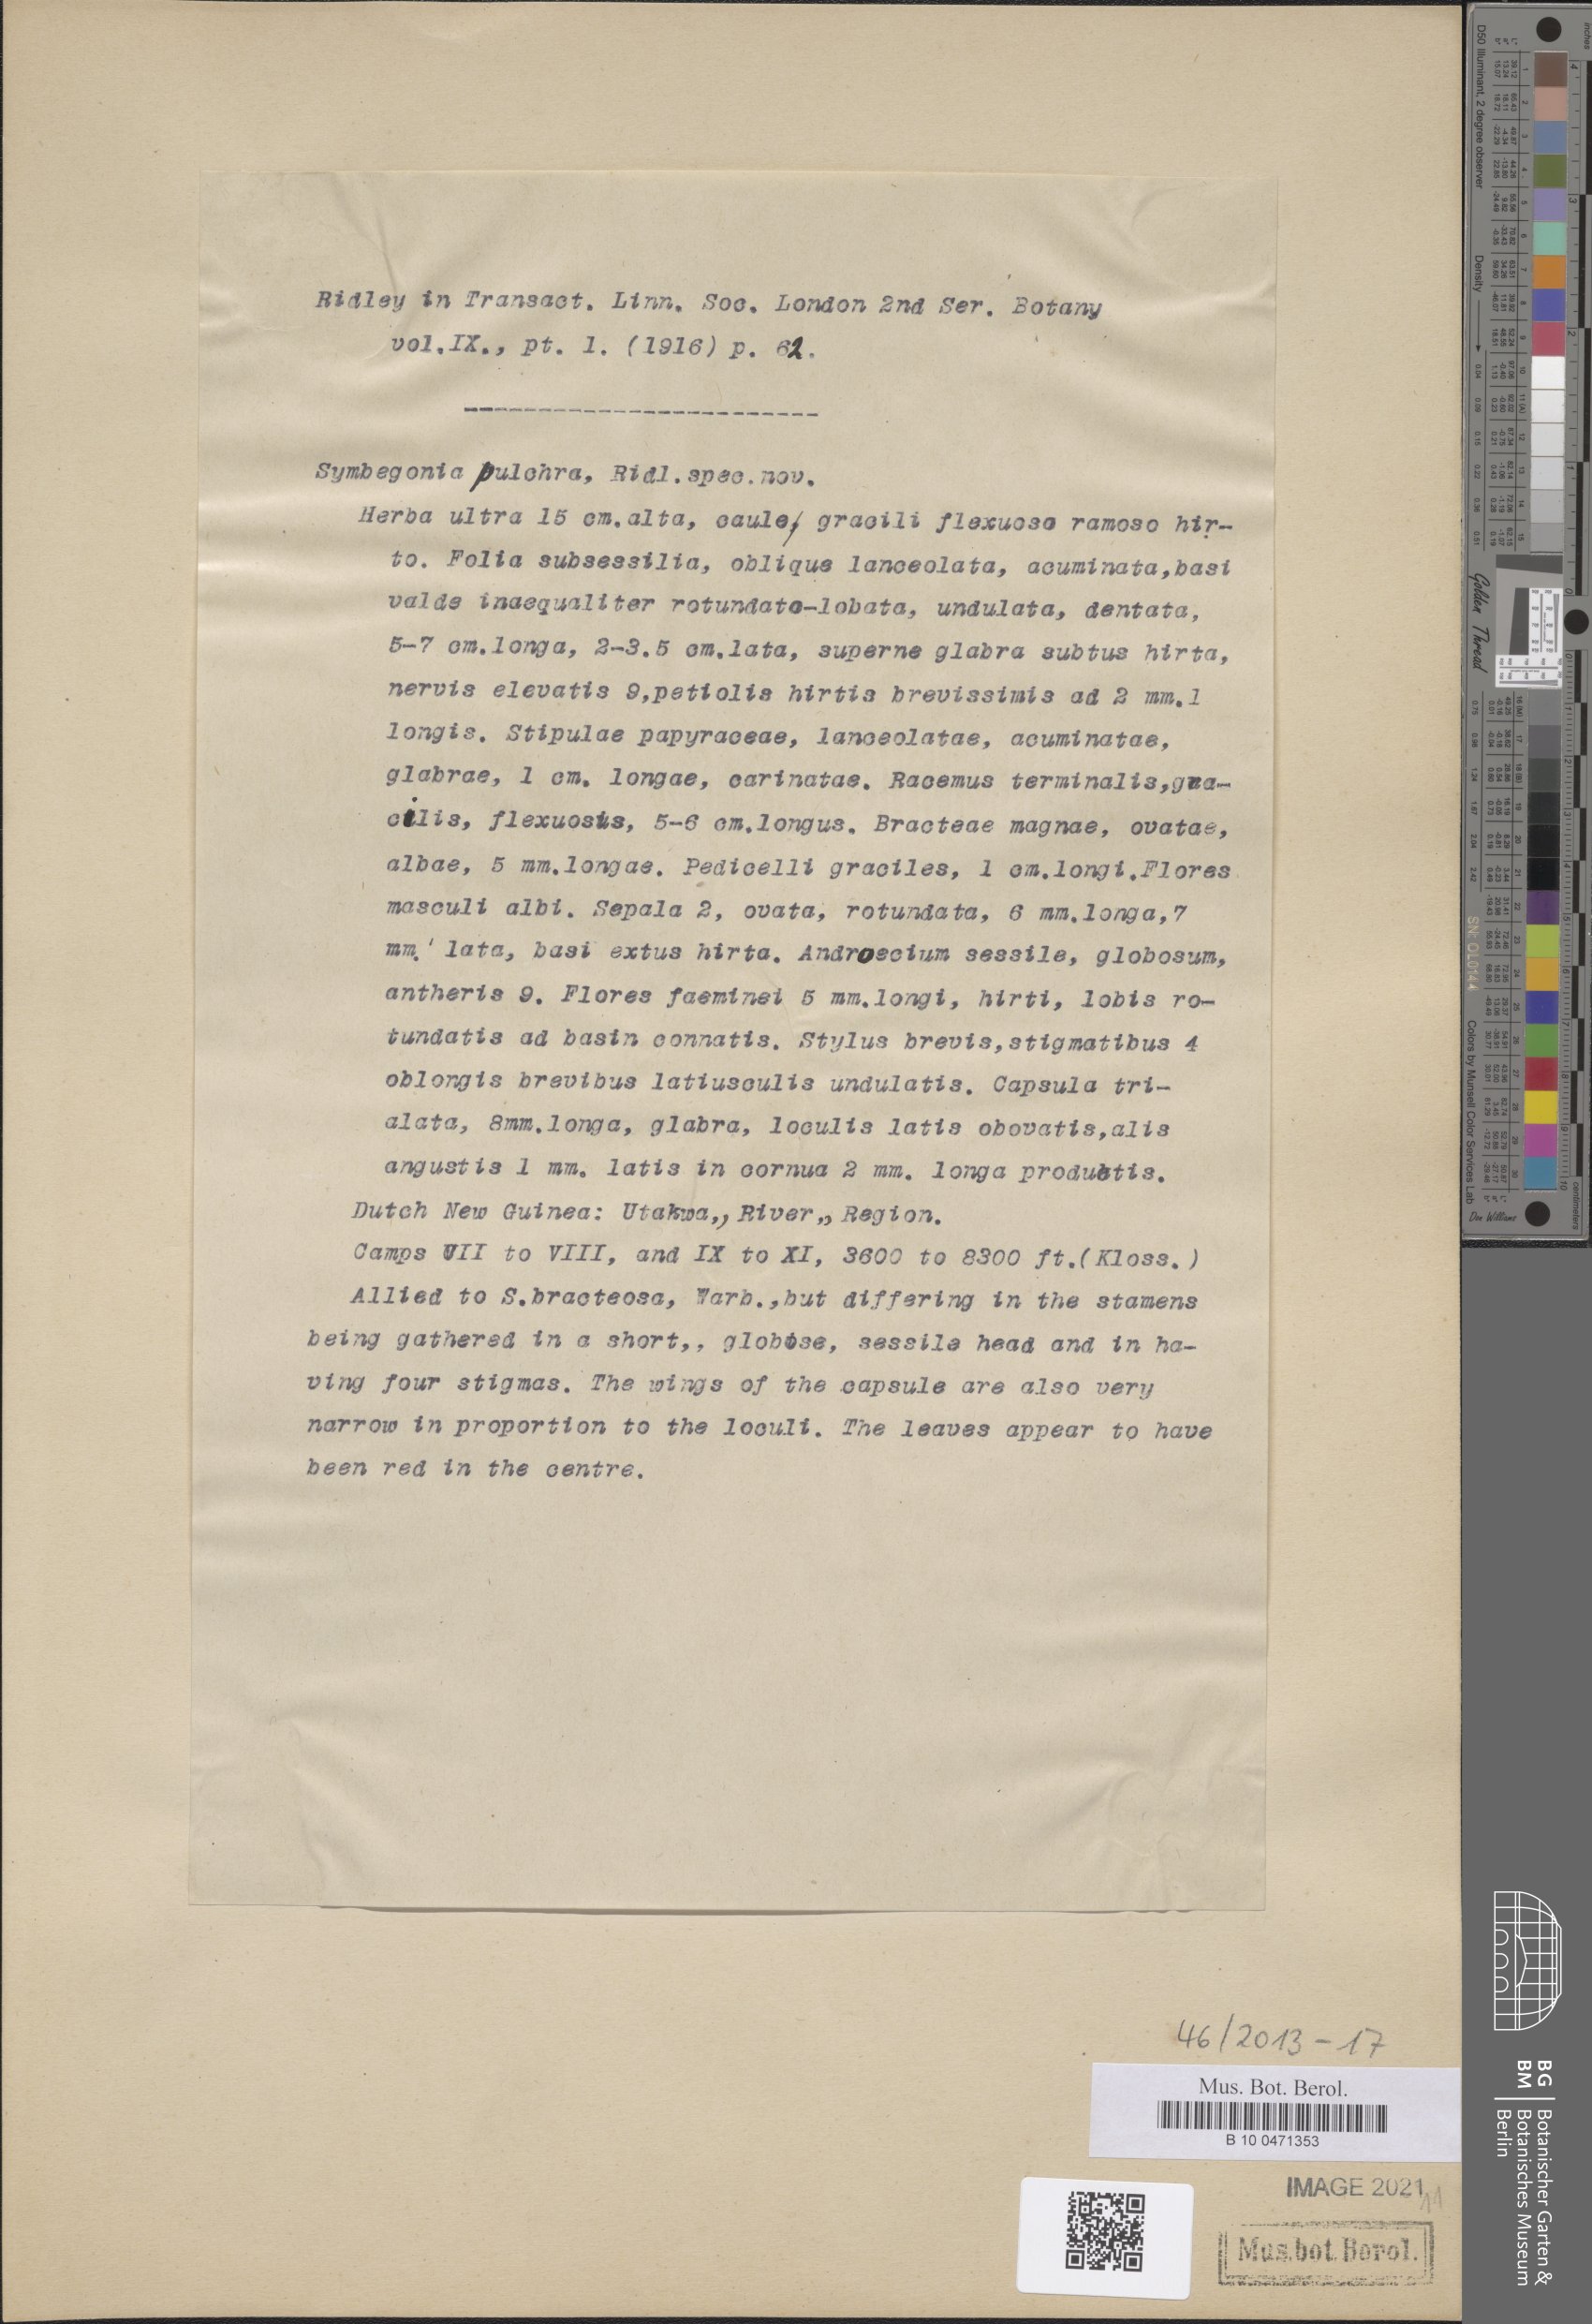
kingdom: Plantae
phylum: Tracheophyta
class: Magnoliopsida
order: Cucurbitales
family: Begoniaceae
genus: Begonia
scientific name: Begonia sympapuana
